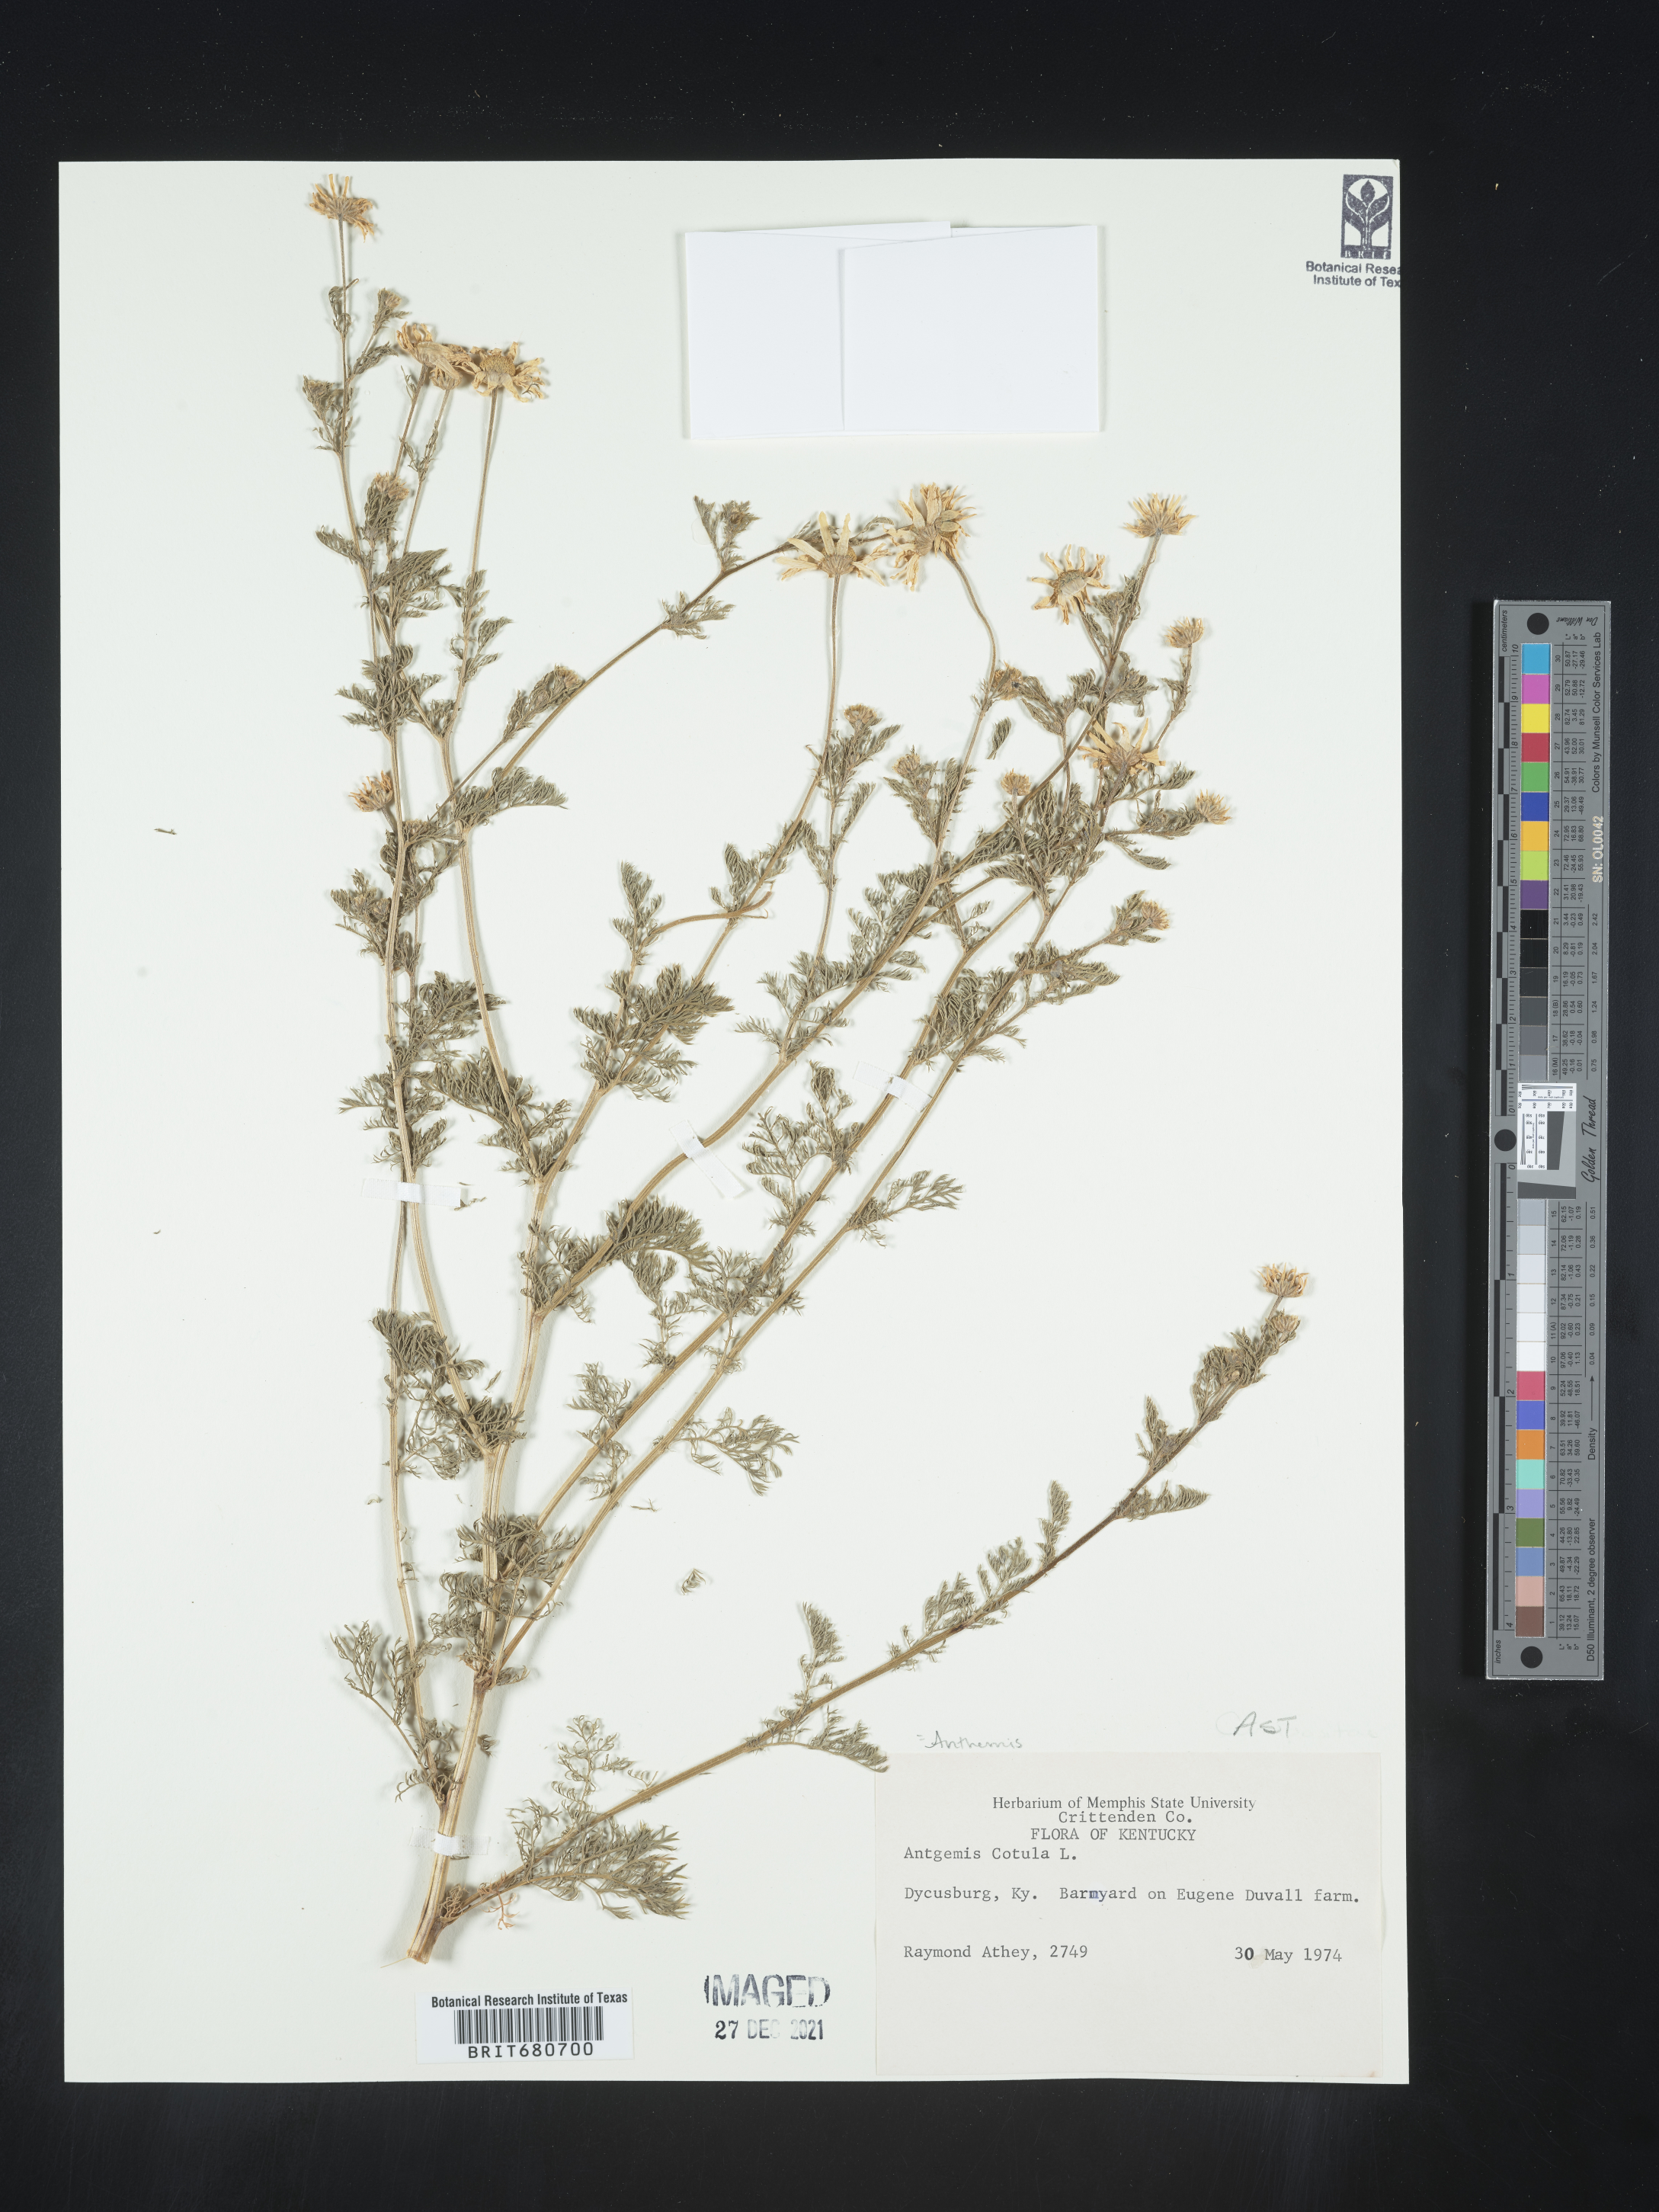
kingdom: Plantae
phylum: Tracheophyta
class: Magnoliopsida
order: Asterales
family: Asteraceae
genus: Anthemis
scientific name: Anthemis cotula
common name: Stinking chamomile
